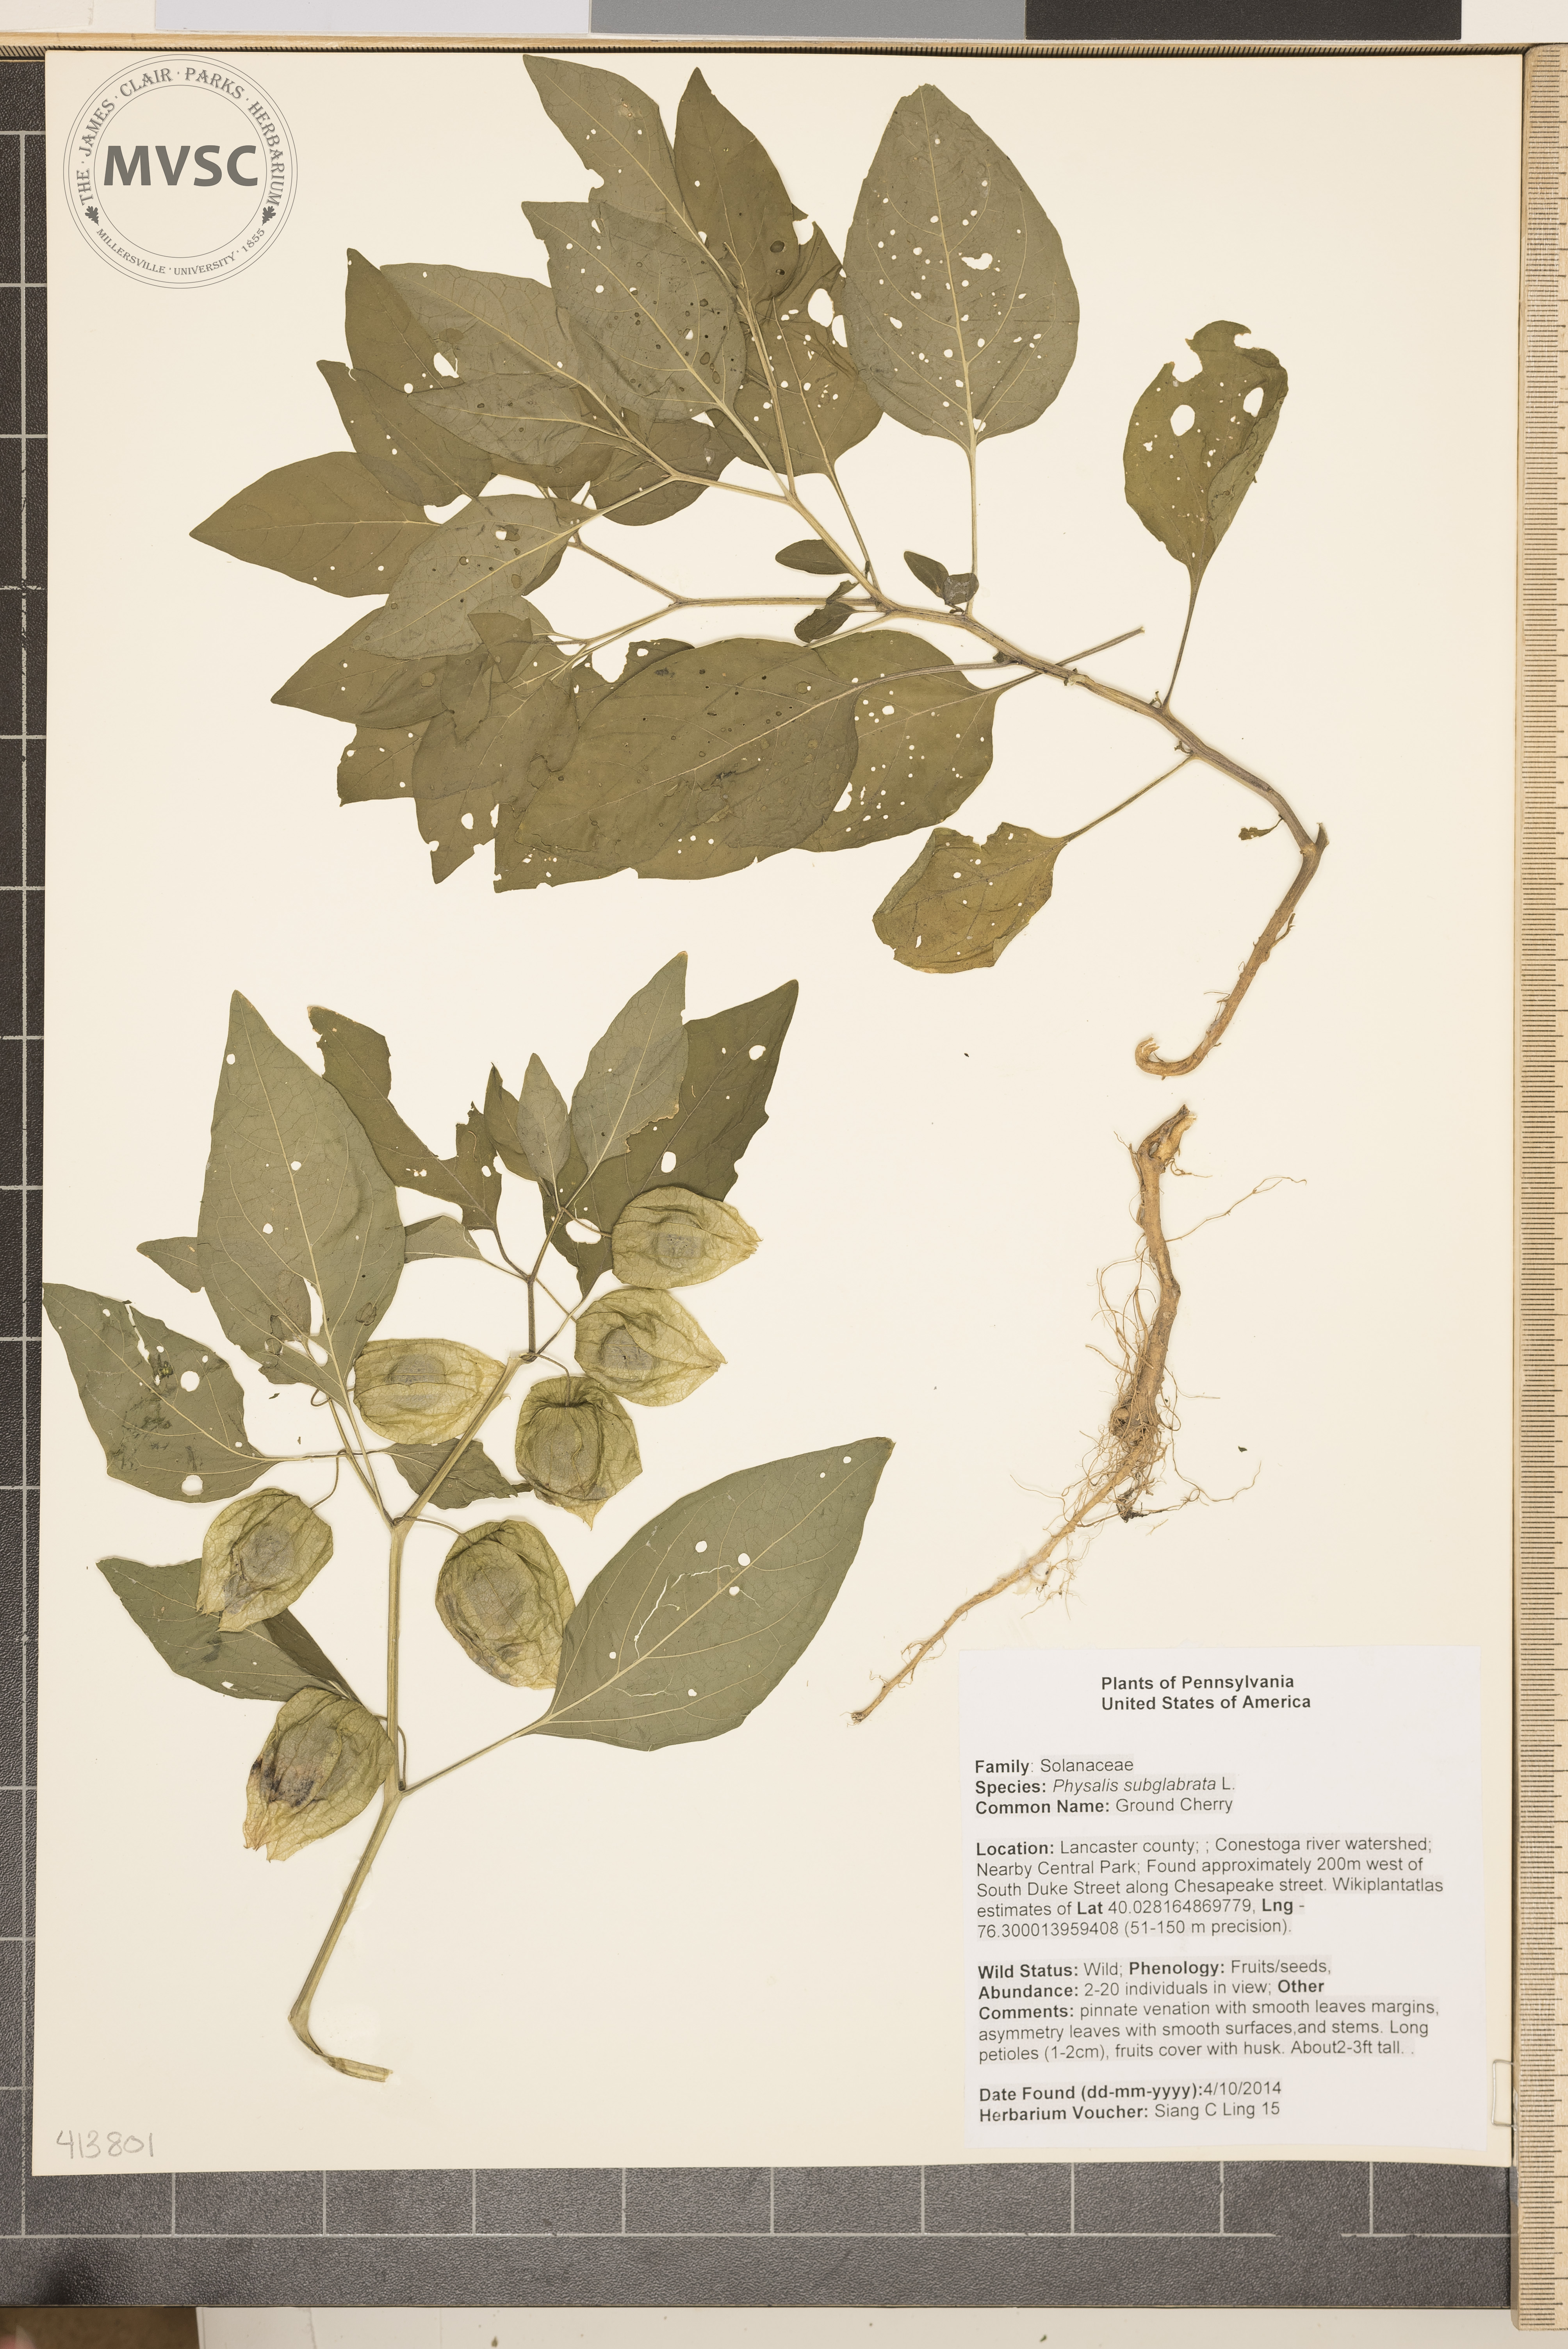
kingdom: Plantae
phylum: Tracheophyta
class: Magnoliopsida
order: Solanales
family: Solanaceae
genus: Physalis
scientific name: Physalis longifolia
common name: Ground Cherry
